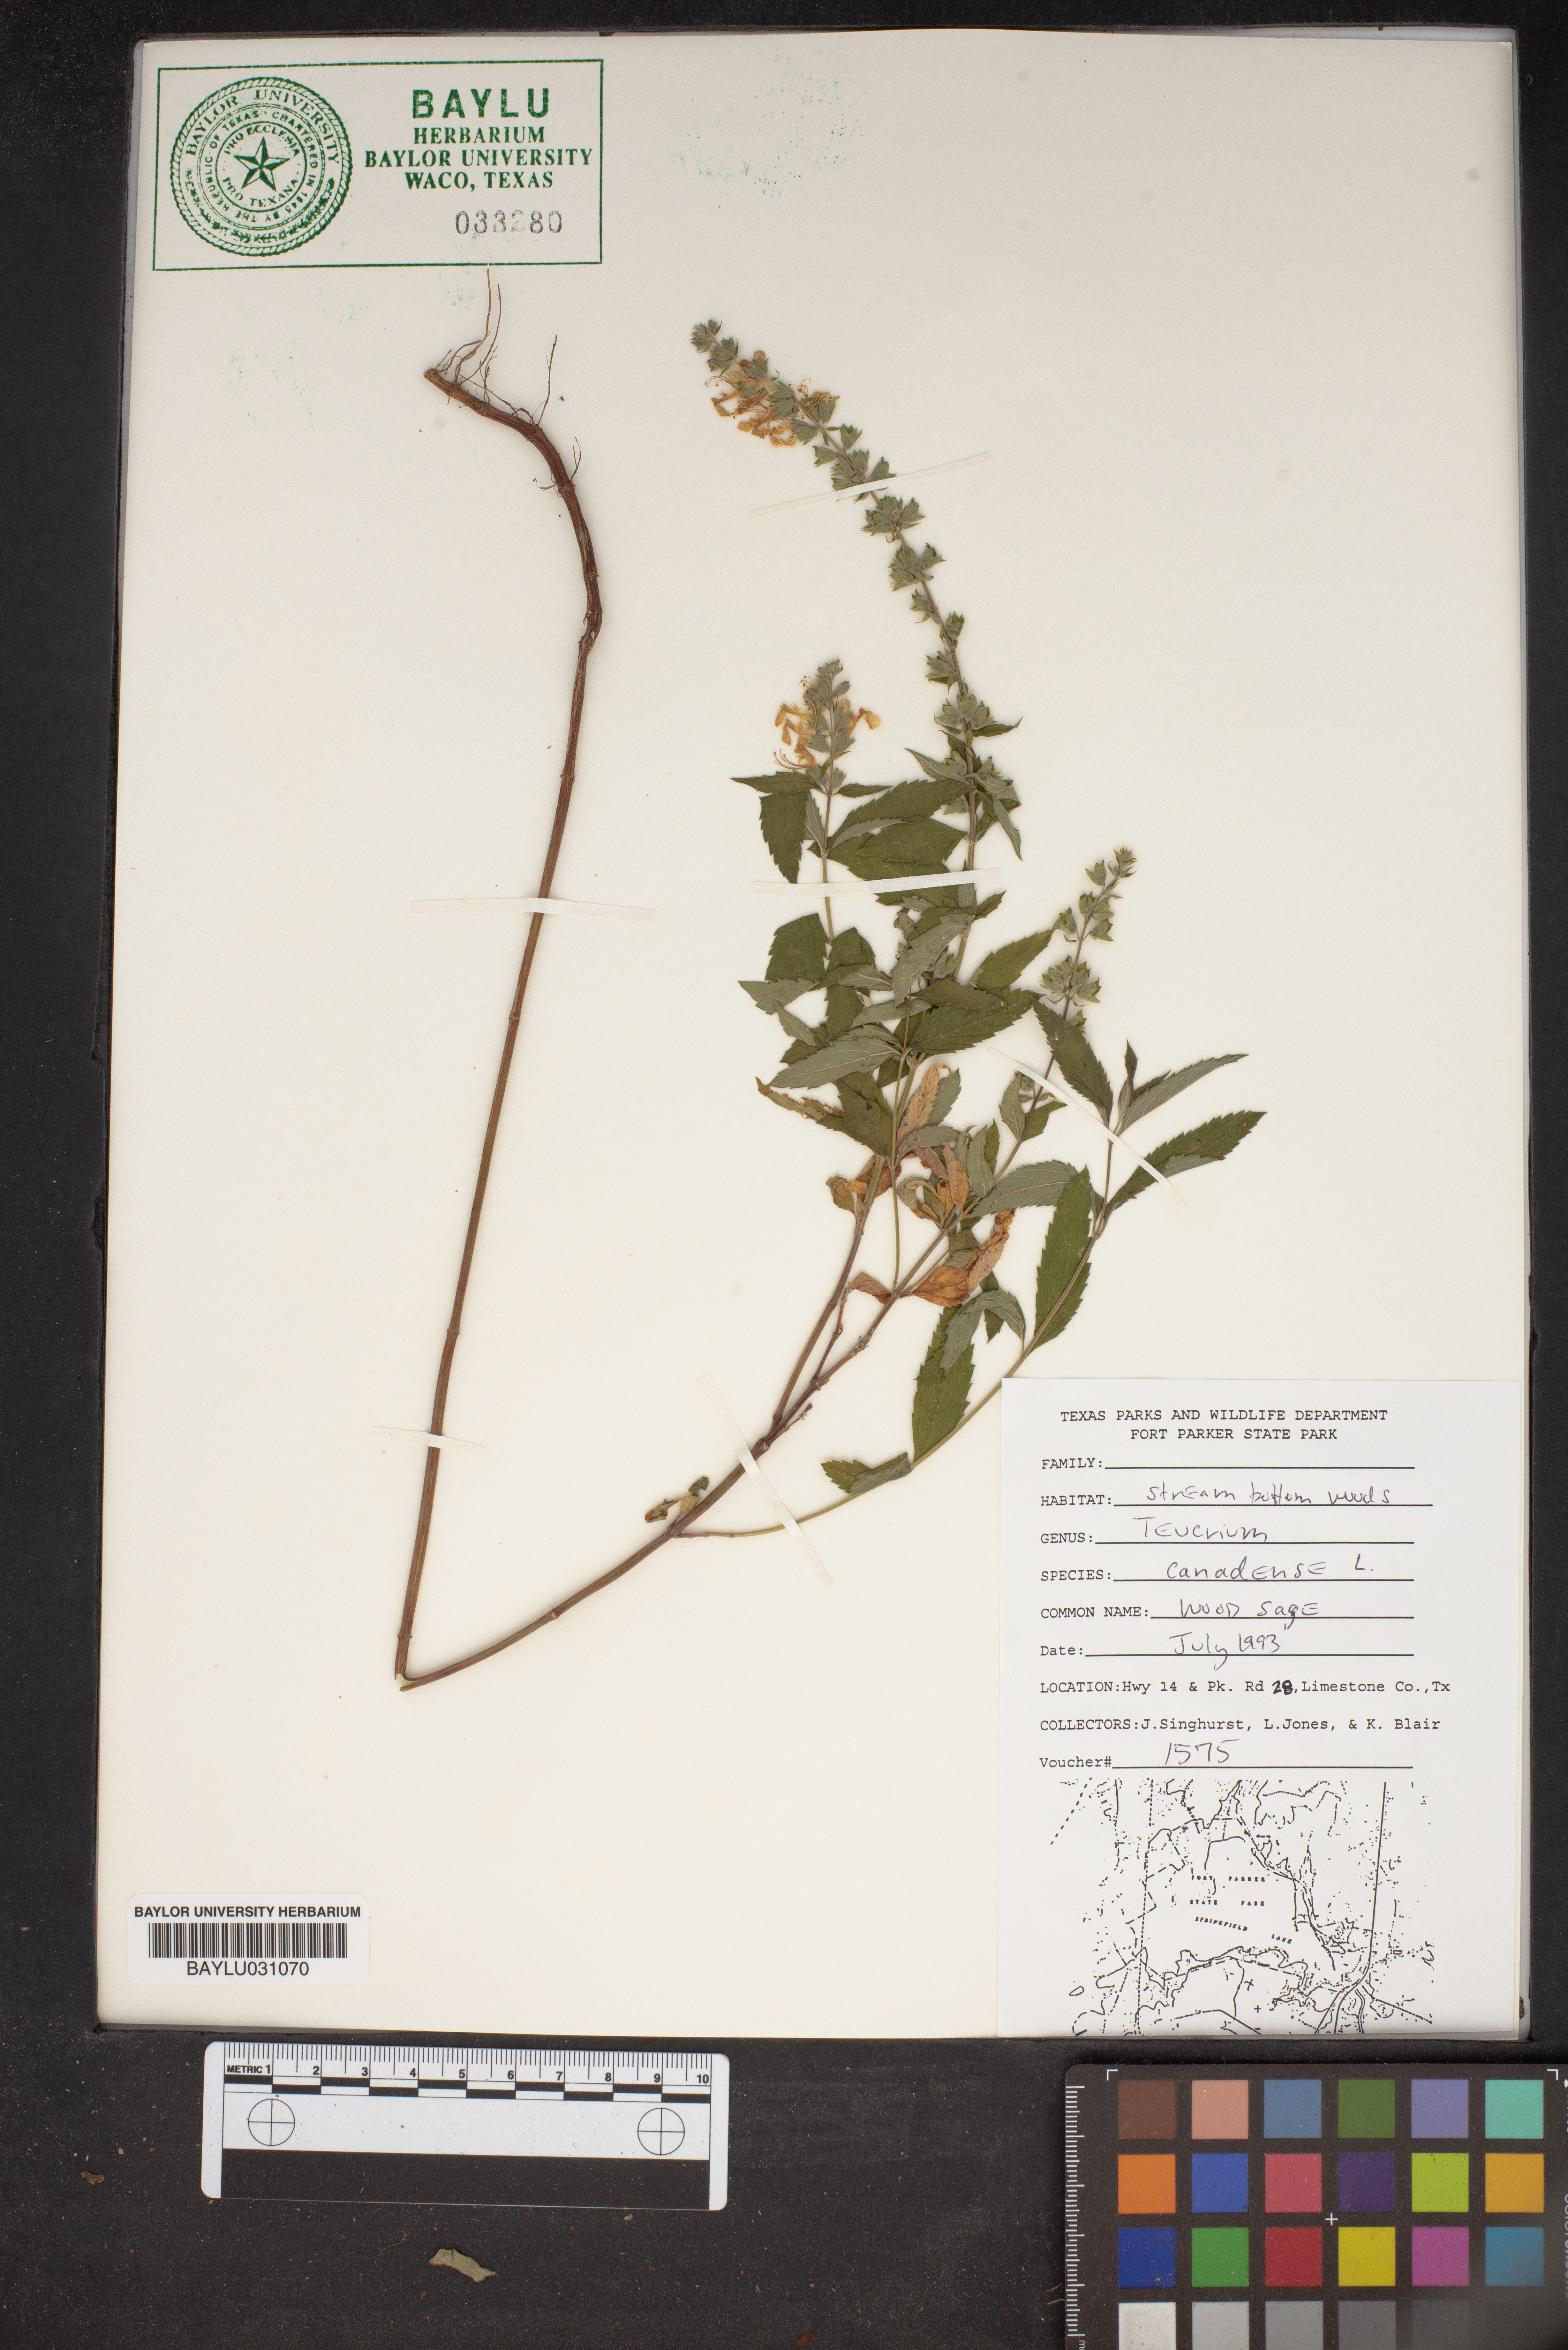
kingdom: Plantae
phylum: Tracheophyta
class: Magnoliopsida
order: Lamiales
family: Lamiaceae
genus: Teucrium
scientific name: Teucrium canadense
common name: American germander
